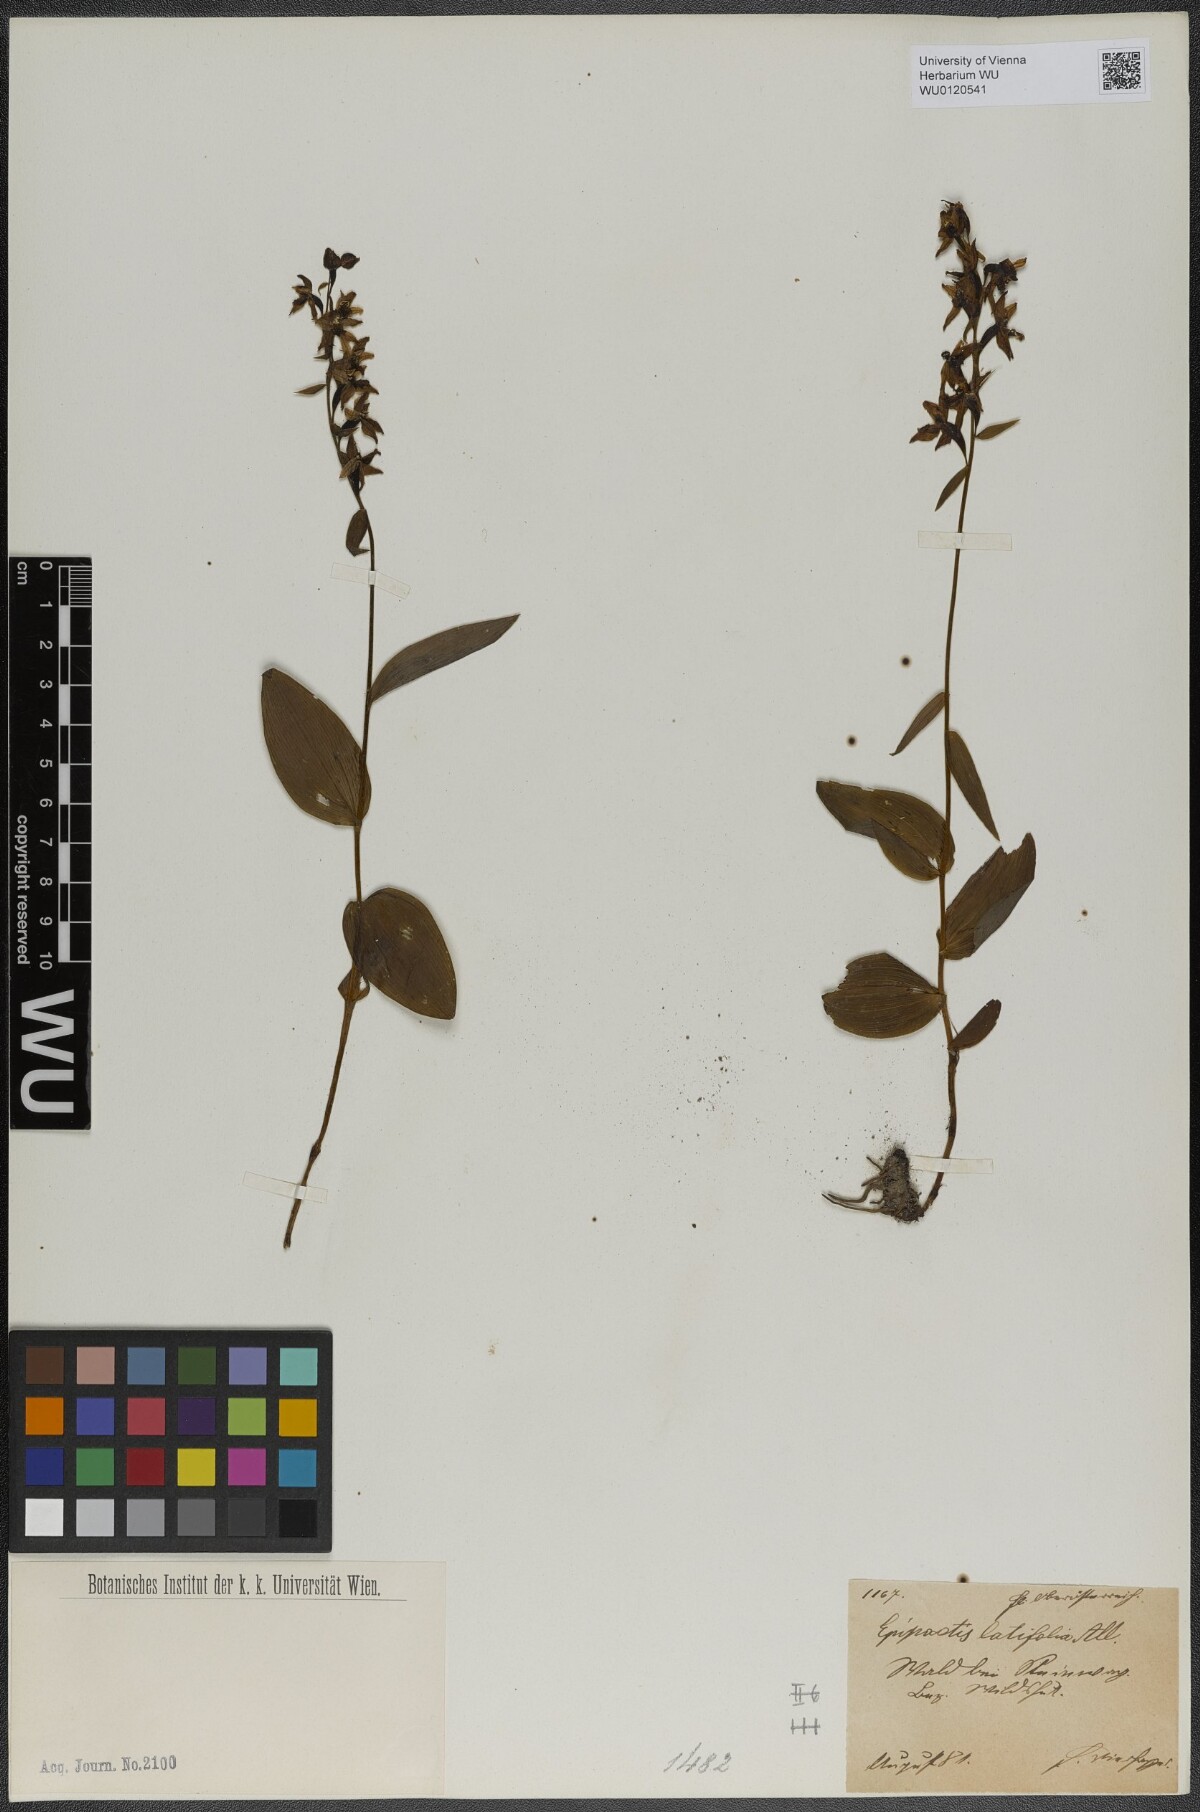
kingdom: Plantae
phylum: Tracheophyta
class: Liliopsida
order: Asparagales
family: Orchidaceae
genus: Epipactis
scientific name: Epipactis helleborine
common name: Broad-leaved helleborine
